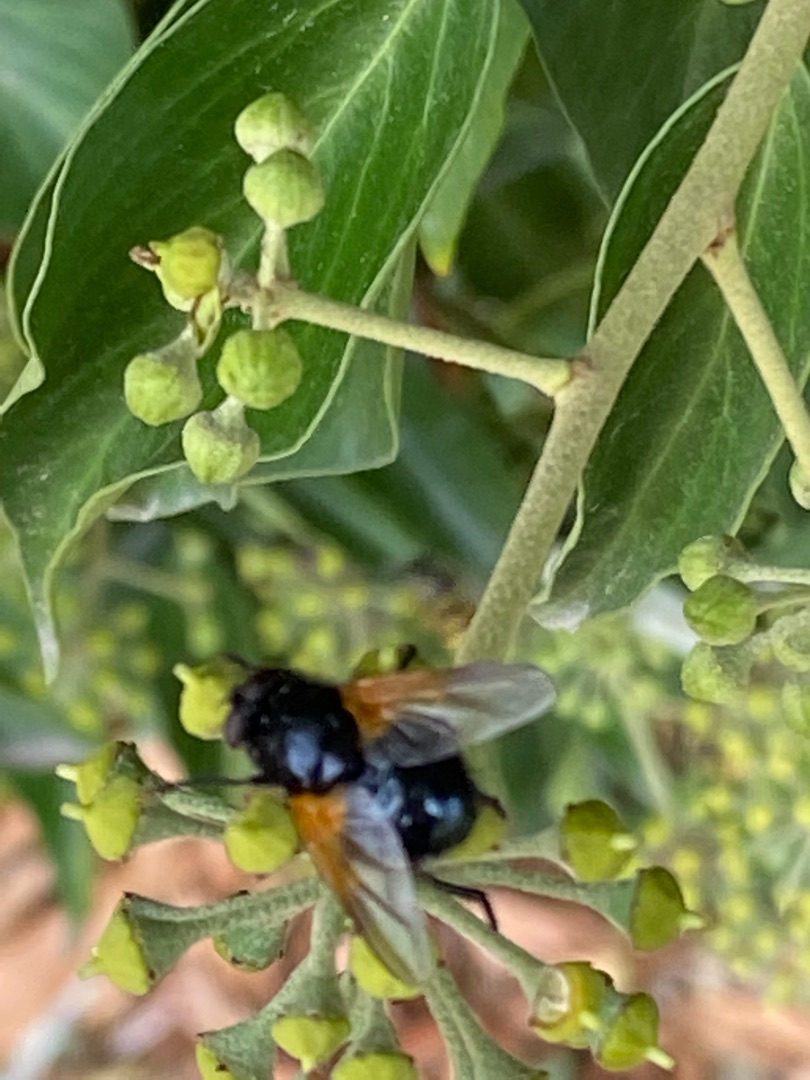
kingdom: Animalia
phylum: Arthropoda
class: Insecta
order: Diptera
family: Muscidae
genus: Mesembrina
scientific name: Mesembrina meridiana
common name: Gulvinget flue
